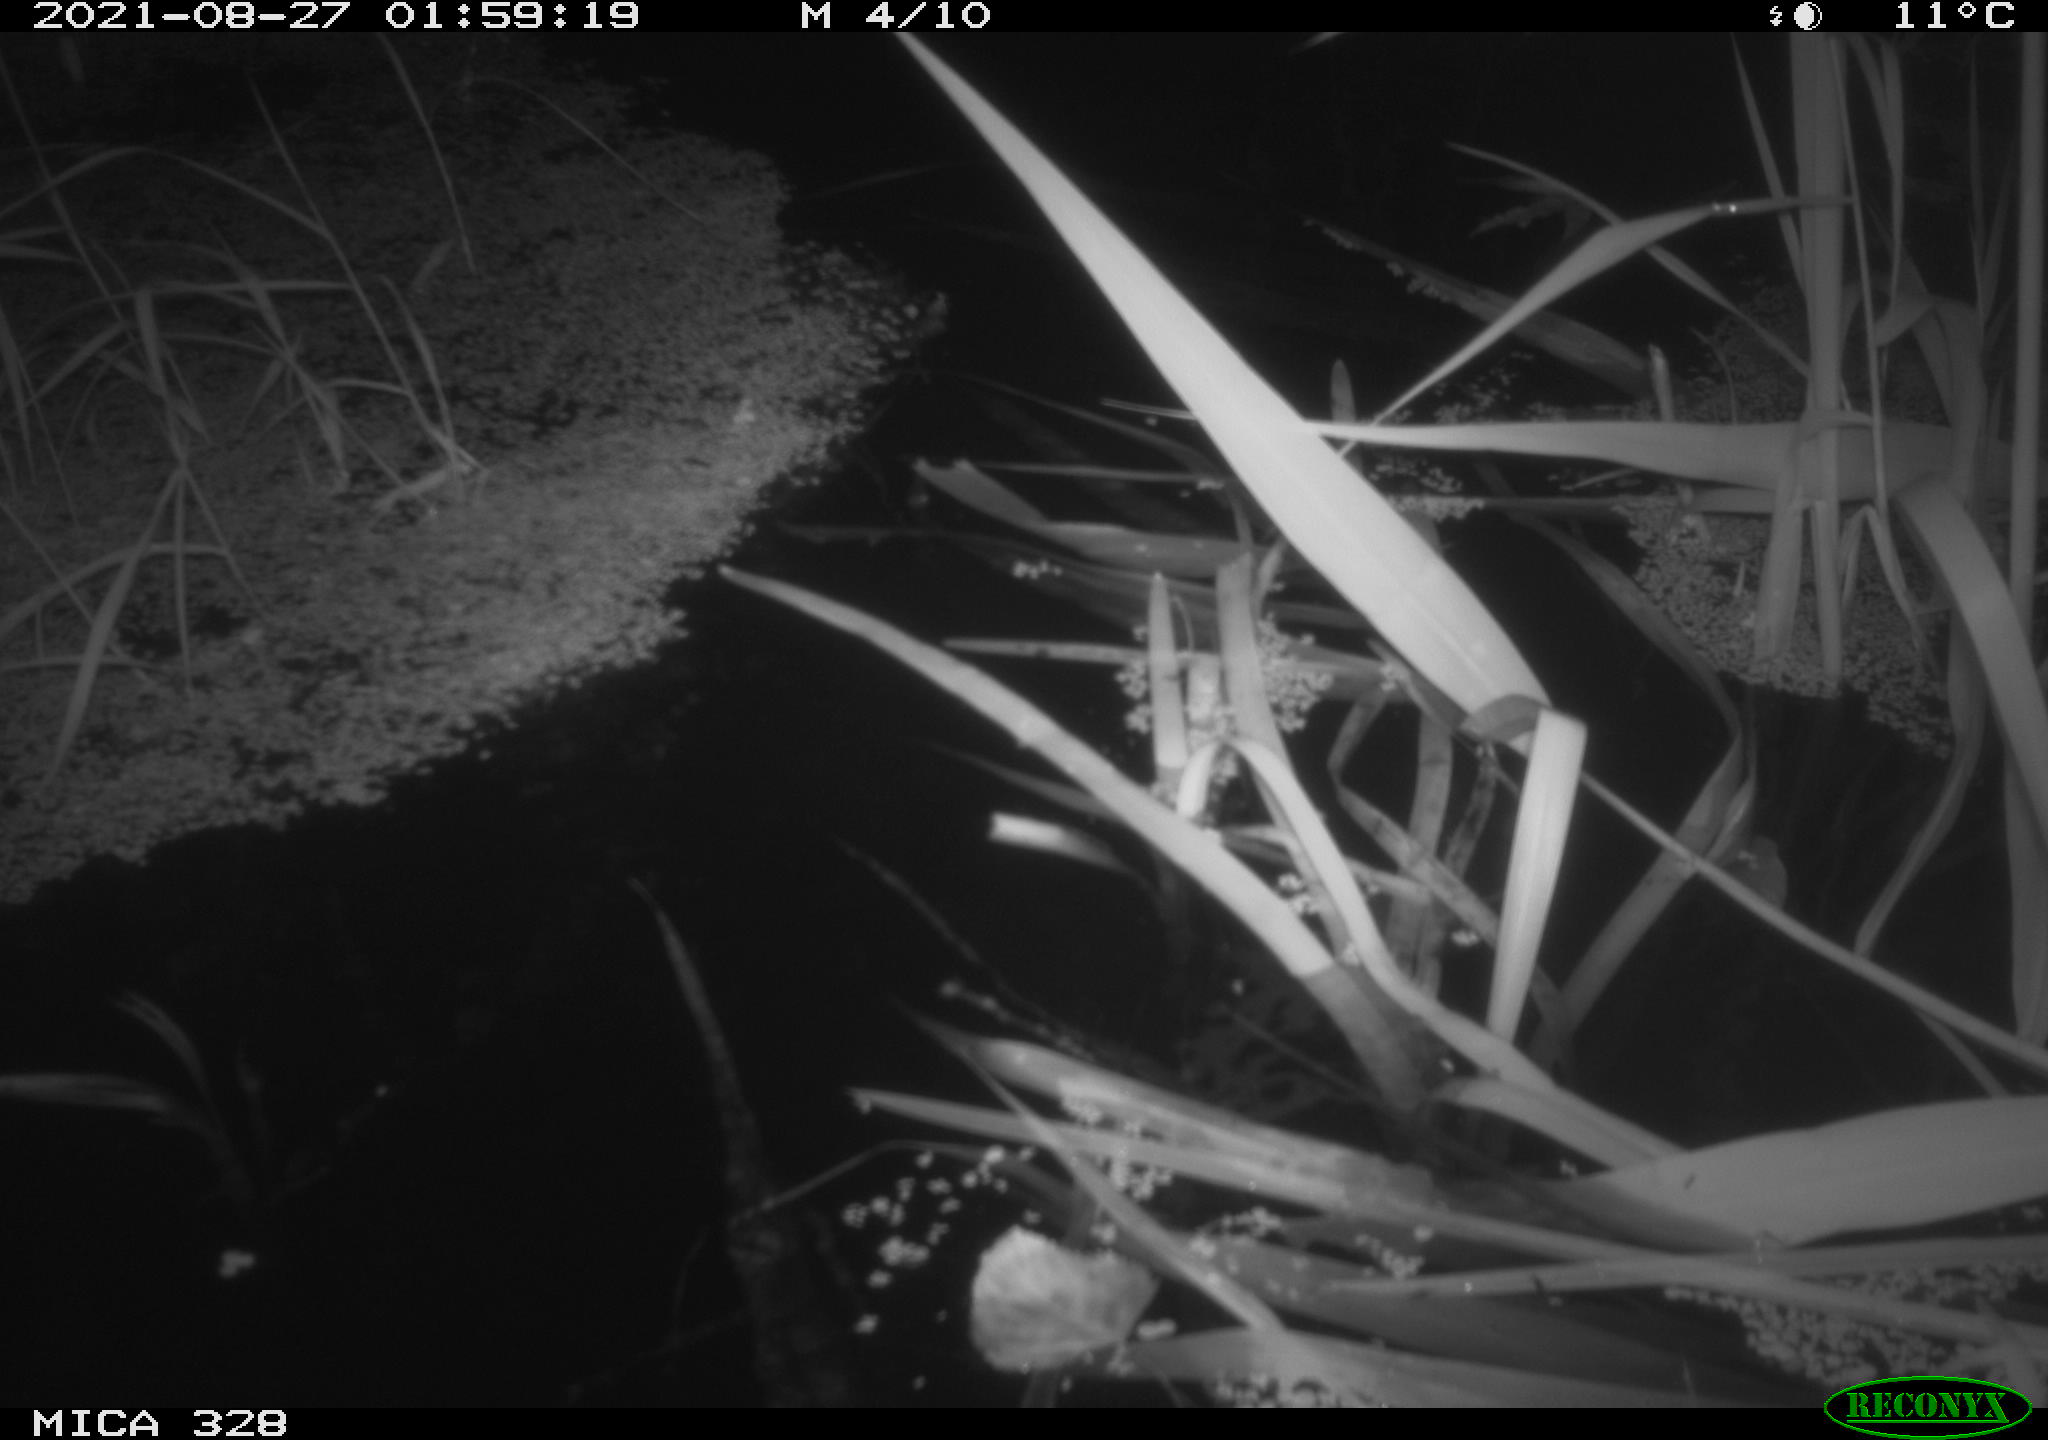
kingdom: Animalia
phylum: Chordata
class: Mammalia
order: Rodentia
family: Cricetidae
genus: Ondatra
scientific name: Ondatra zibethicus
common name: Muskrat
